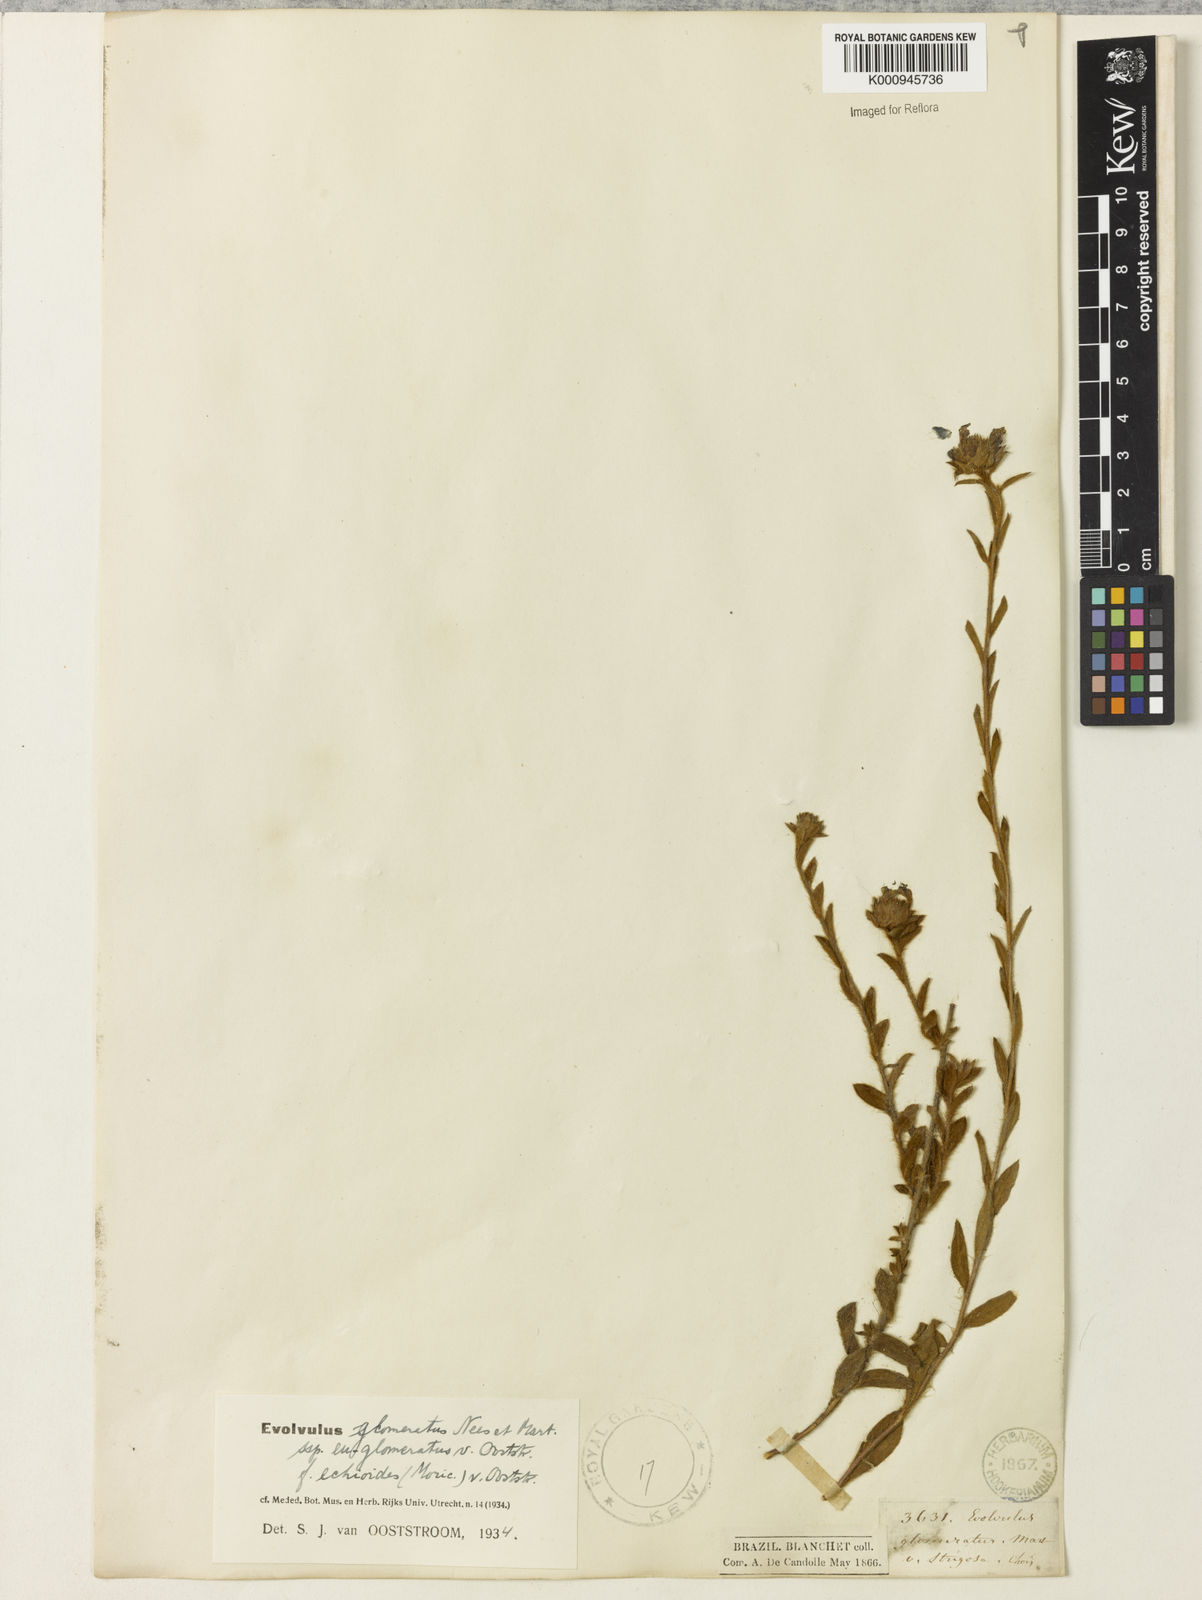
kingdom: Plantae
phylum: Tracheophyta
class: Magnoliopsida
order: Solanales
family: Convolvulaceae
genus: Evolvulus
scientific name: Evolvulus glomeratus
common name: Brazilian dwarf morning-glory
